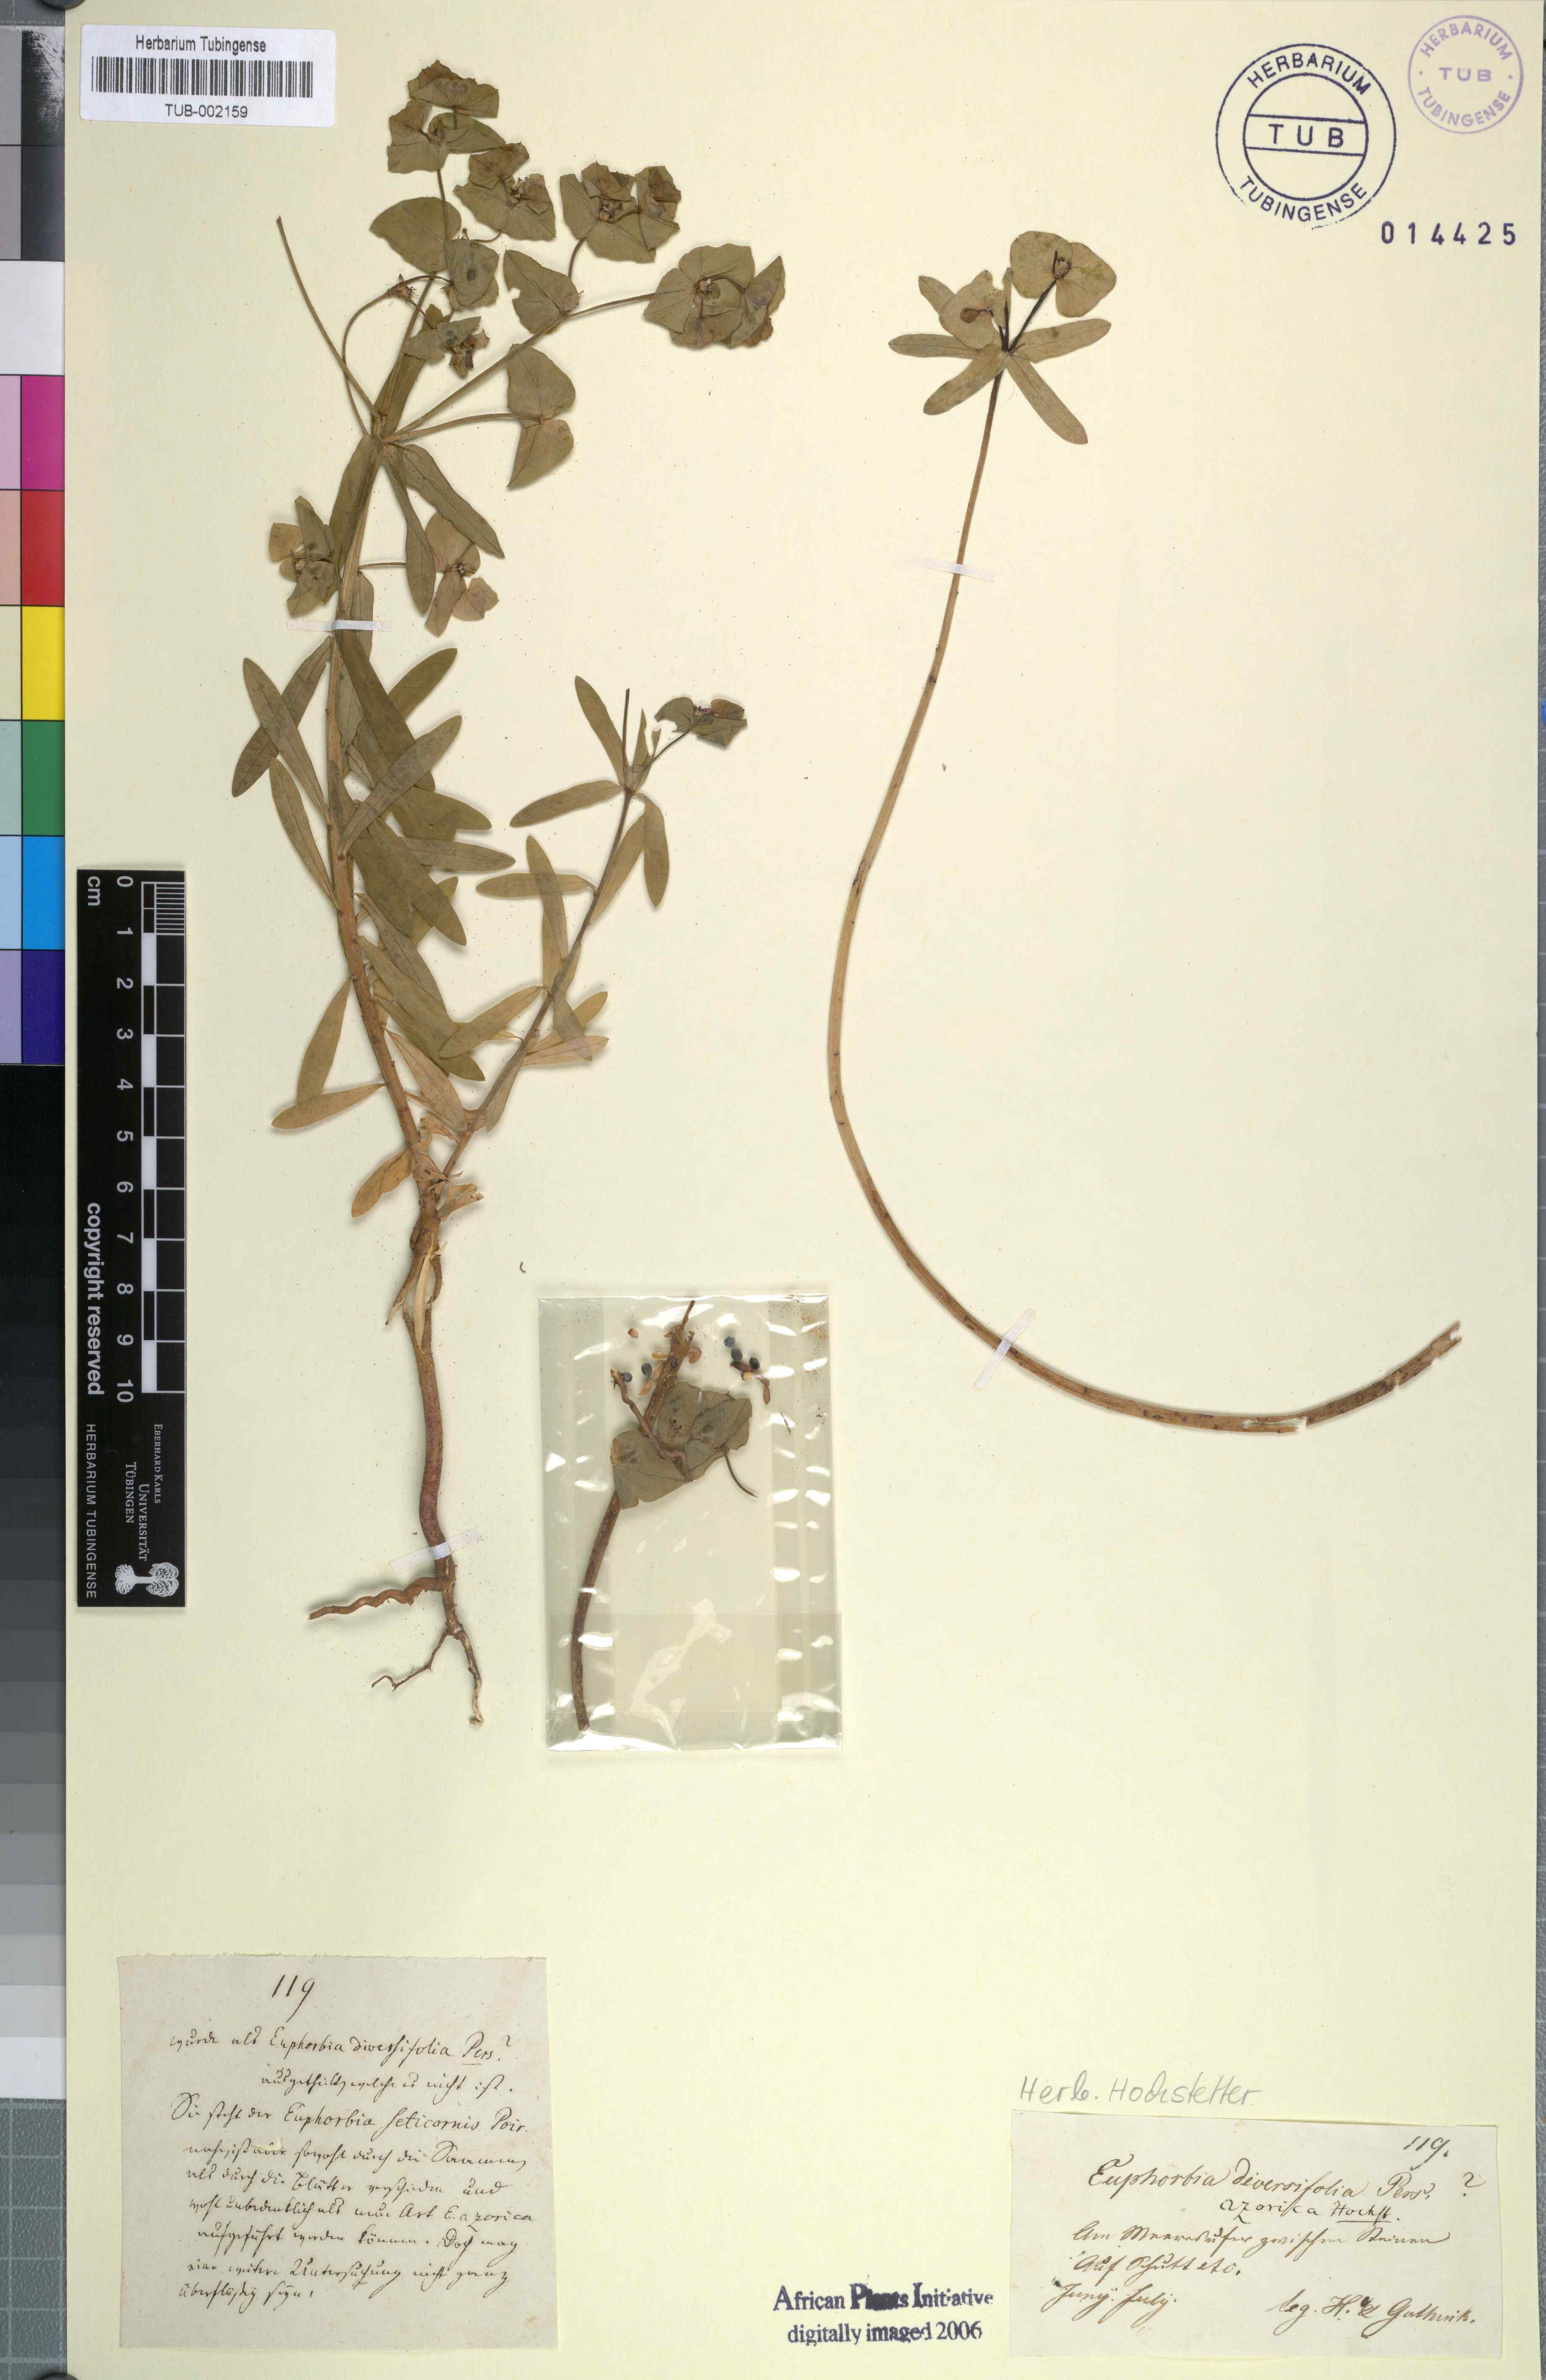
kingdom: Plantae
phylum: Tracheophyta
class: Magnoliopsida
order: Malpighiales
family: Euphorbiaceae
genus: Euphorbia
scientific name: Euphorbia terracina
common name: Geraldton carnation weed
